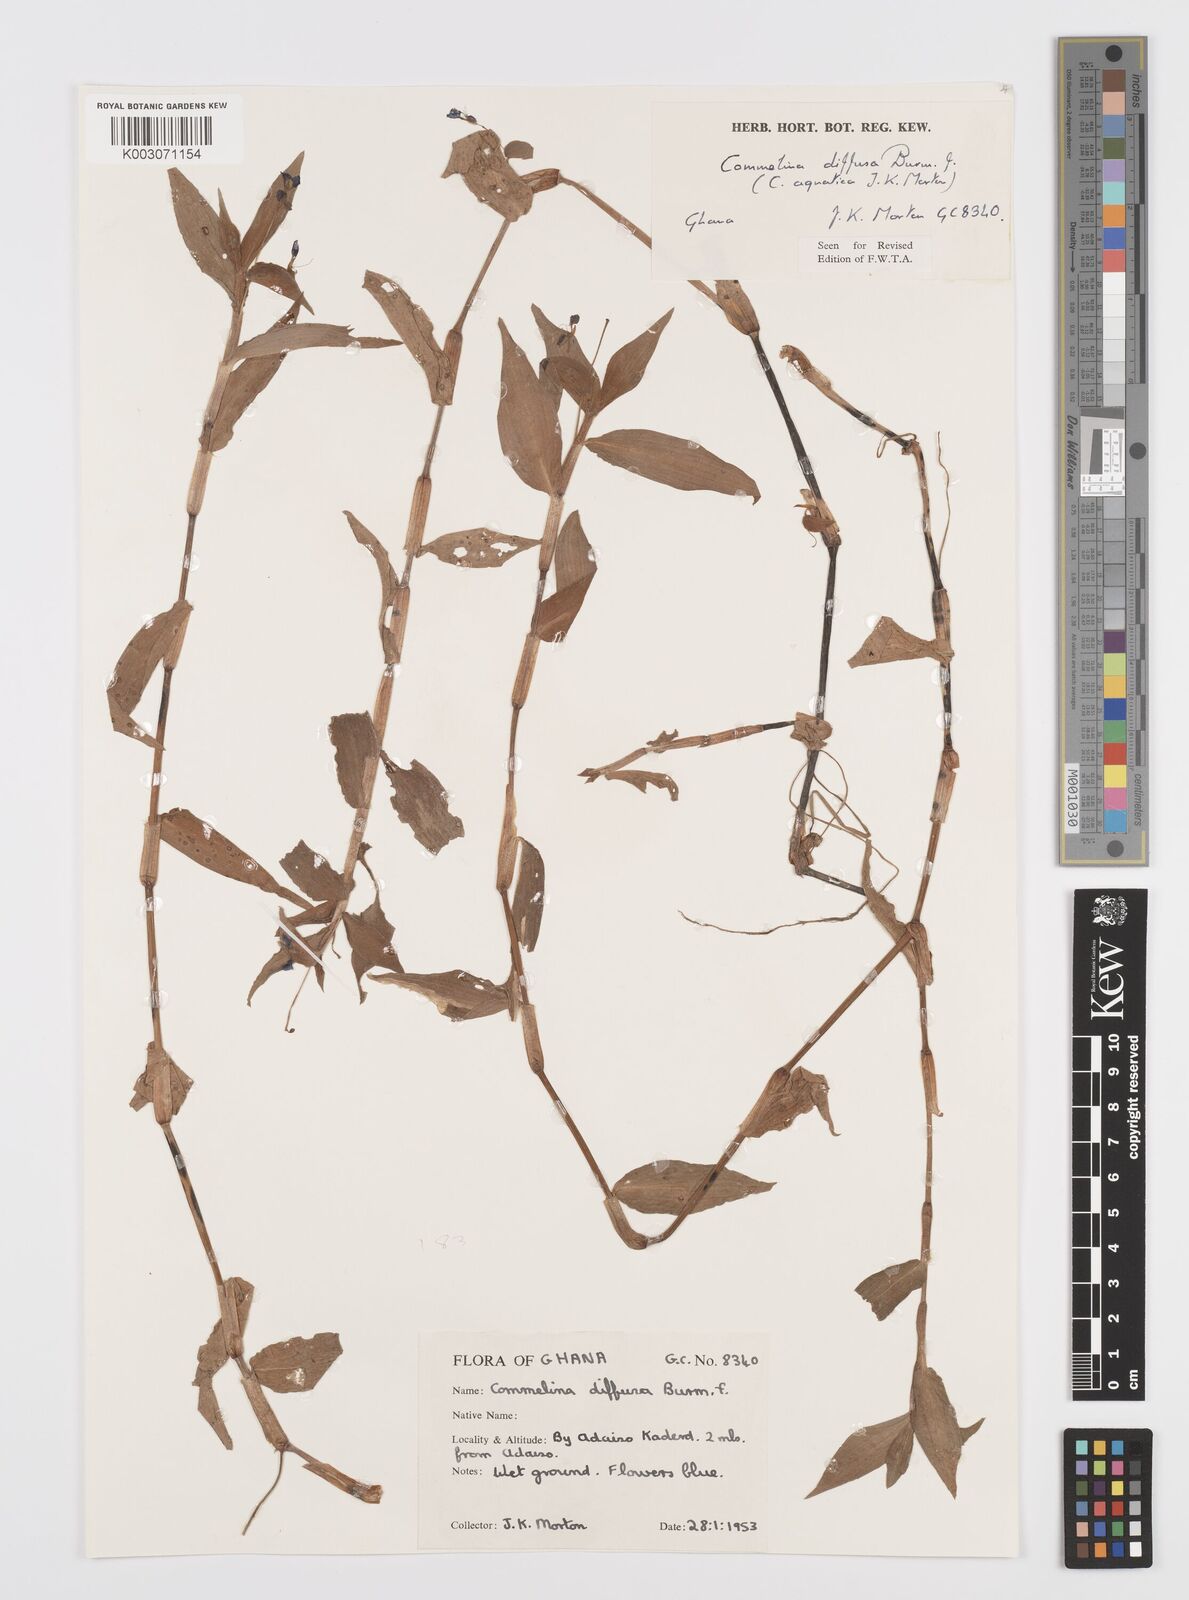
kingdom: Plantae
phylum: Tracheophyta
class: Liliopsida
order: Commelinales
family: Commelinaceae
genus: Commelina
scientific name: Commelina diffusa
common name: Climbing dayflower
